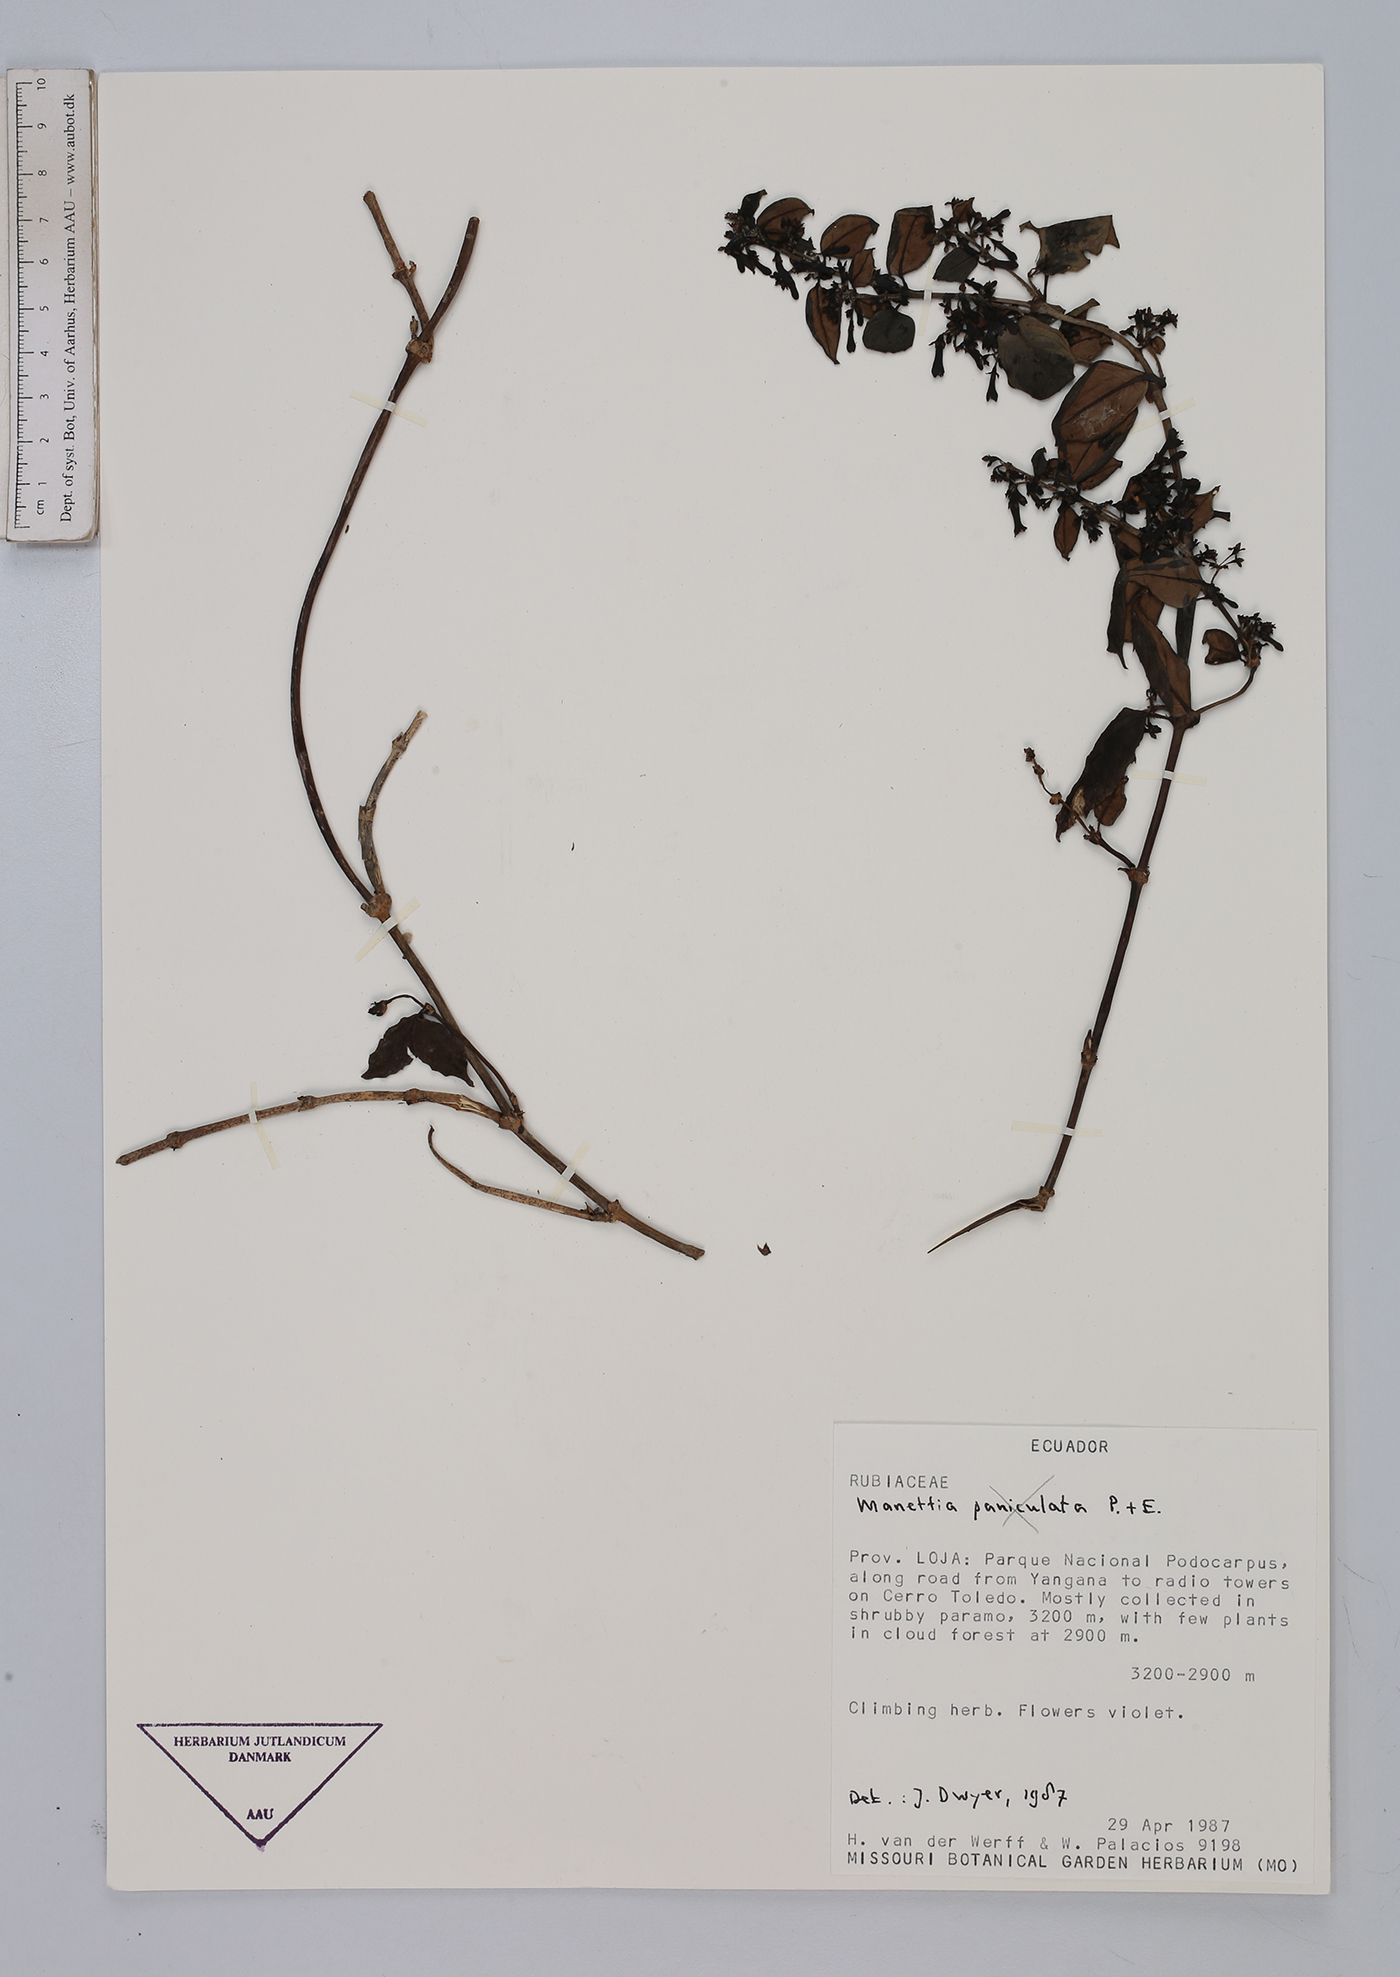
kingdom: Plantae
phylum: Tracheophyta
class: Magnoliopsida
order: Gentianales
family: Rubiaceae
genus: Manettia
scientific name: Manettia
